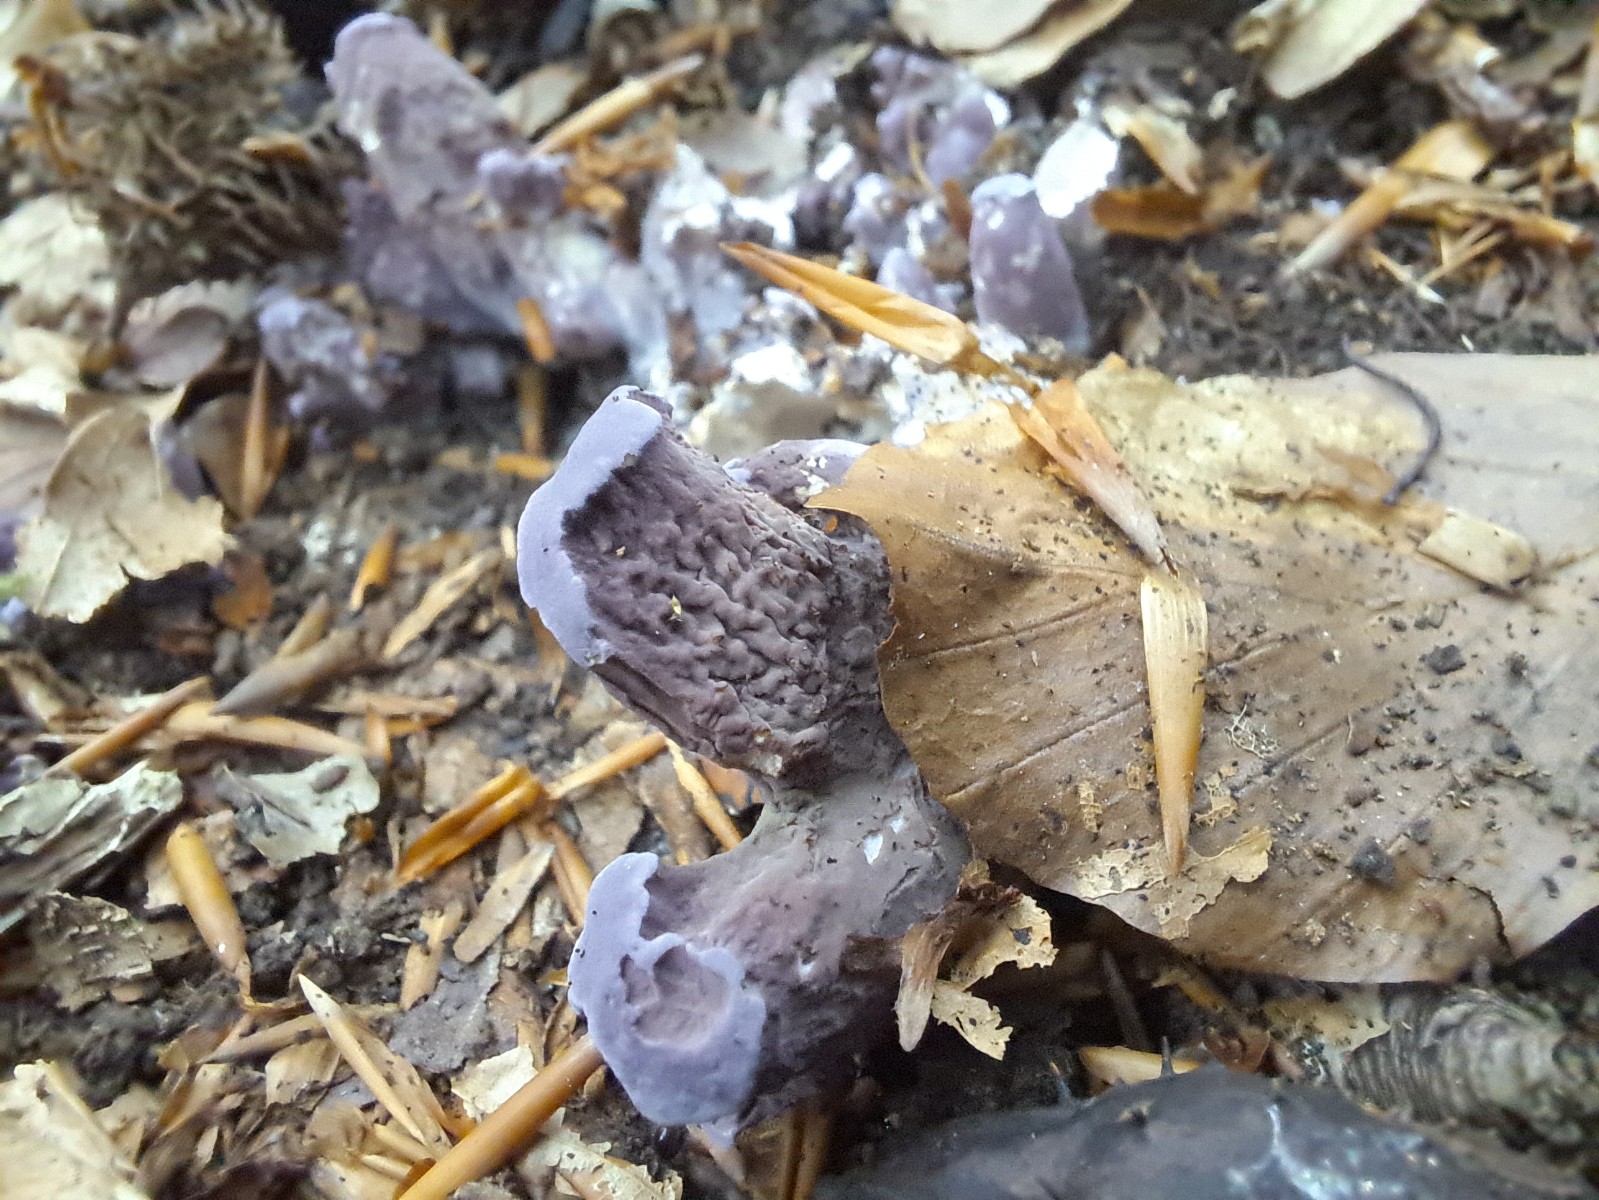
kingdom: Fungi
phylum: Basidiomycota
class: Agaricomycetes
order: Gomphales
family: Gomphaceae
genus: Gomphus
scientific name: Gomphus clavatus
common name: køllekantarel
